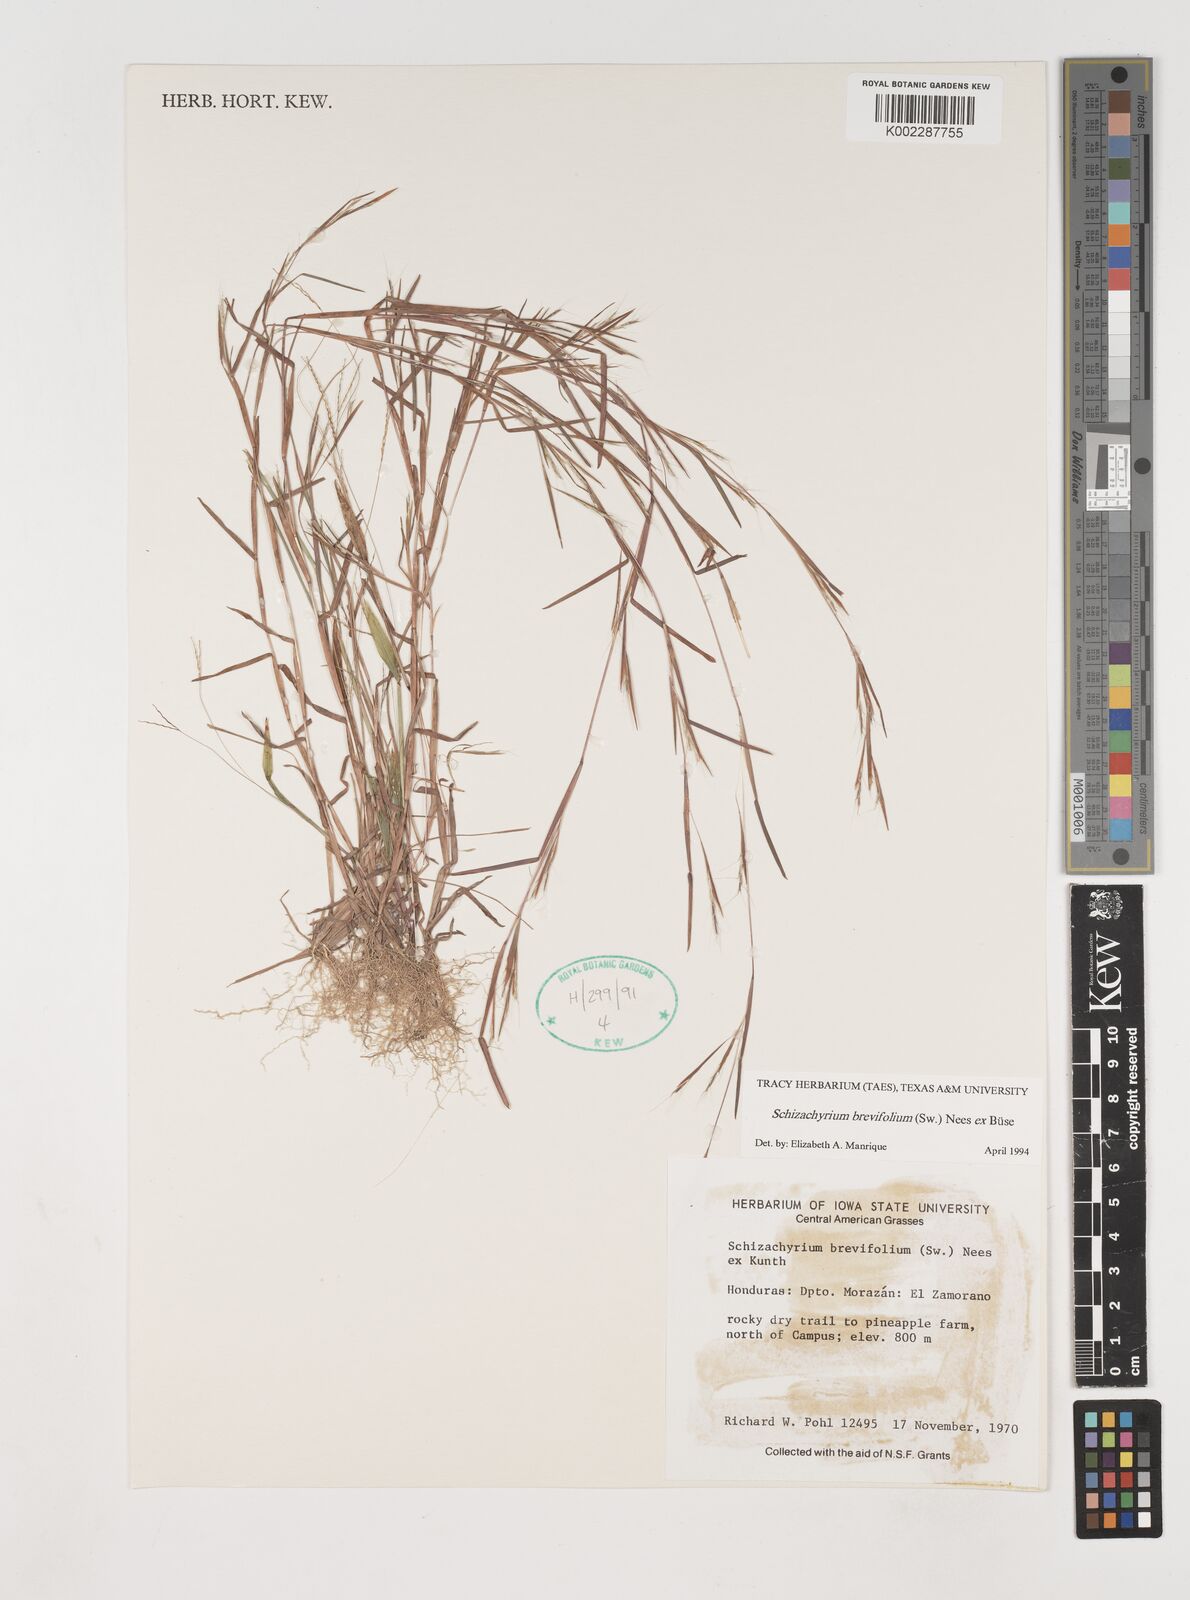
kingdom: Plantae
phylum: Tracheophyta
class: Liliopsida
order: Poales
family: Poaceae
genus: Schizachyrium
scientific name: Schizachyrium brevifolium
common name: Serillo dulce
